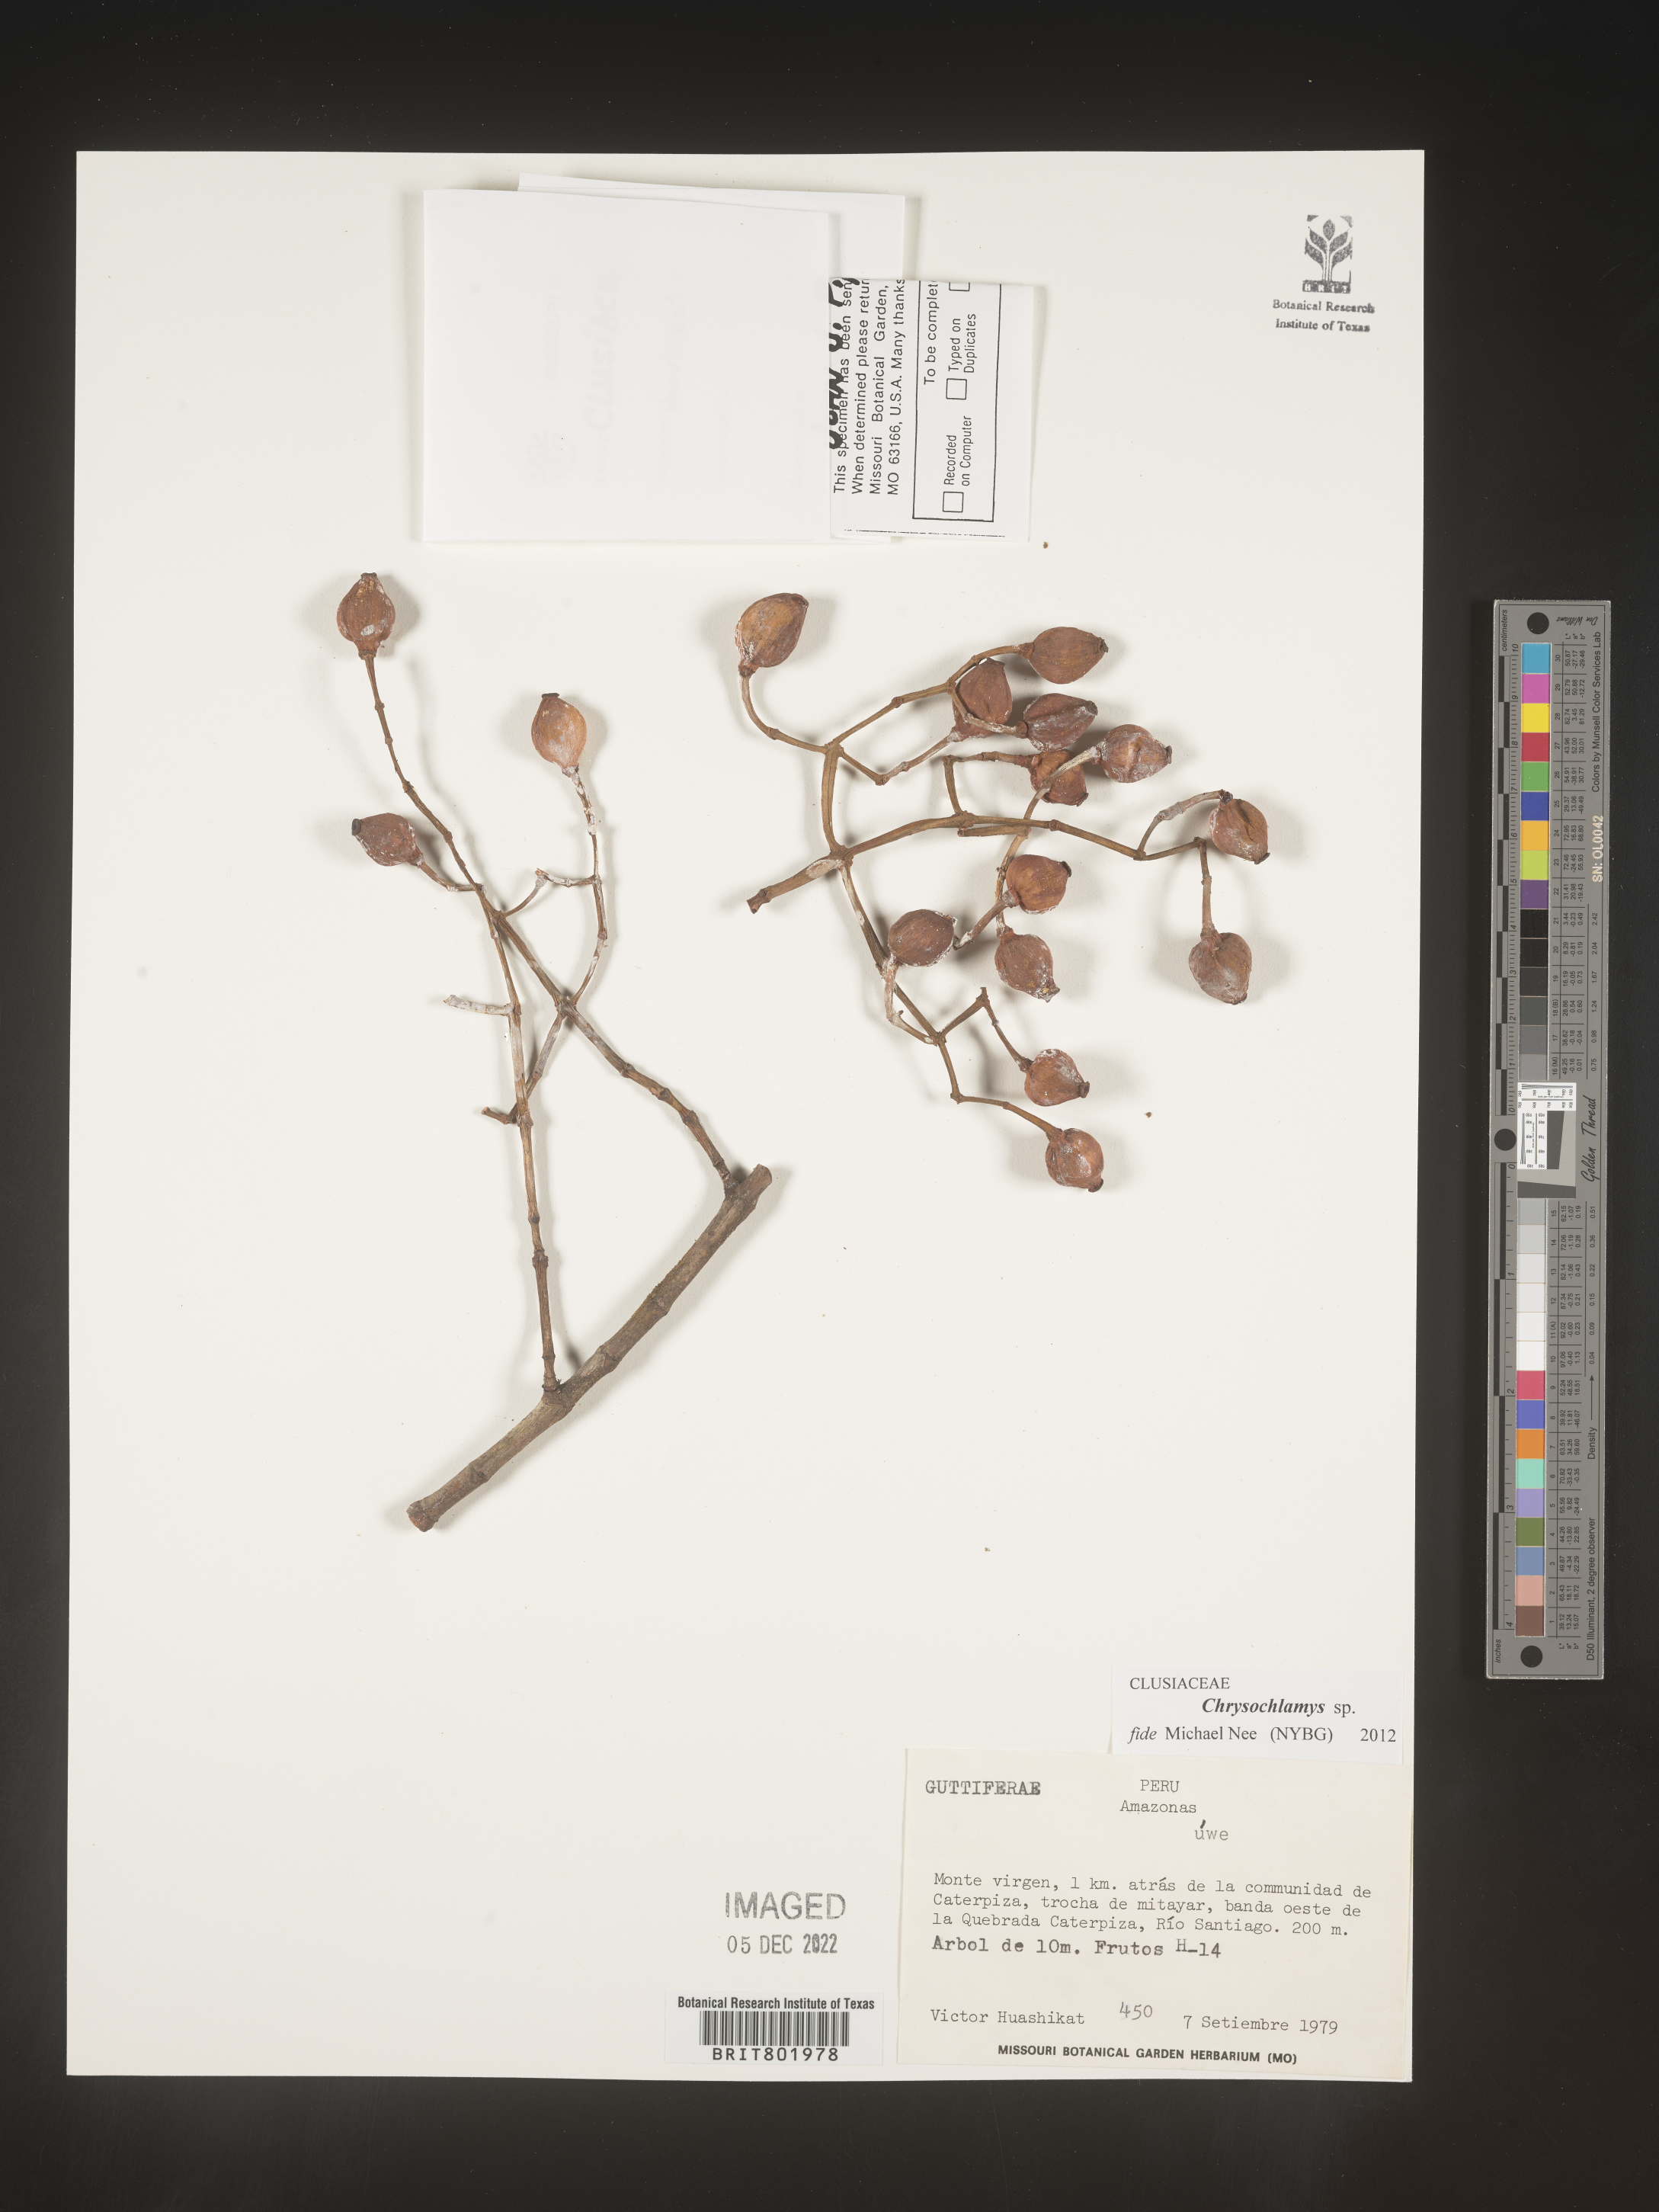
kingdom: Plantae
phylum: Tracheophyta
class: Magnoliopsida
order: Malpighiales
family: Clusiaceae
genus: Chrysochlamys
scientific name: Chrysochlamys
